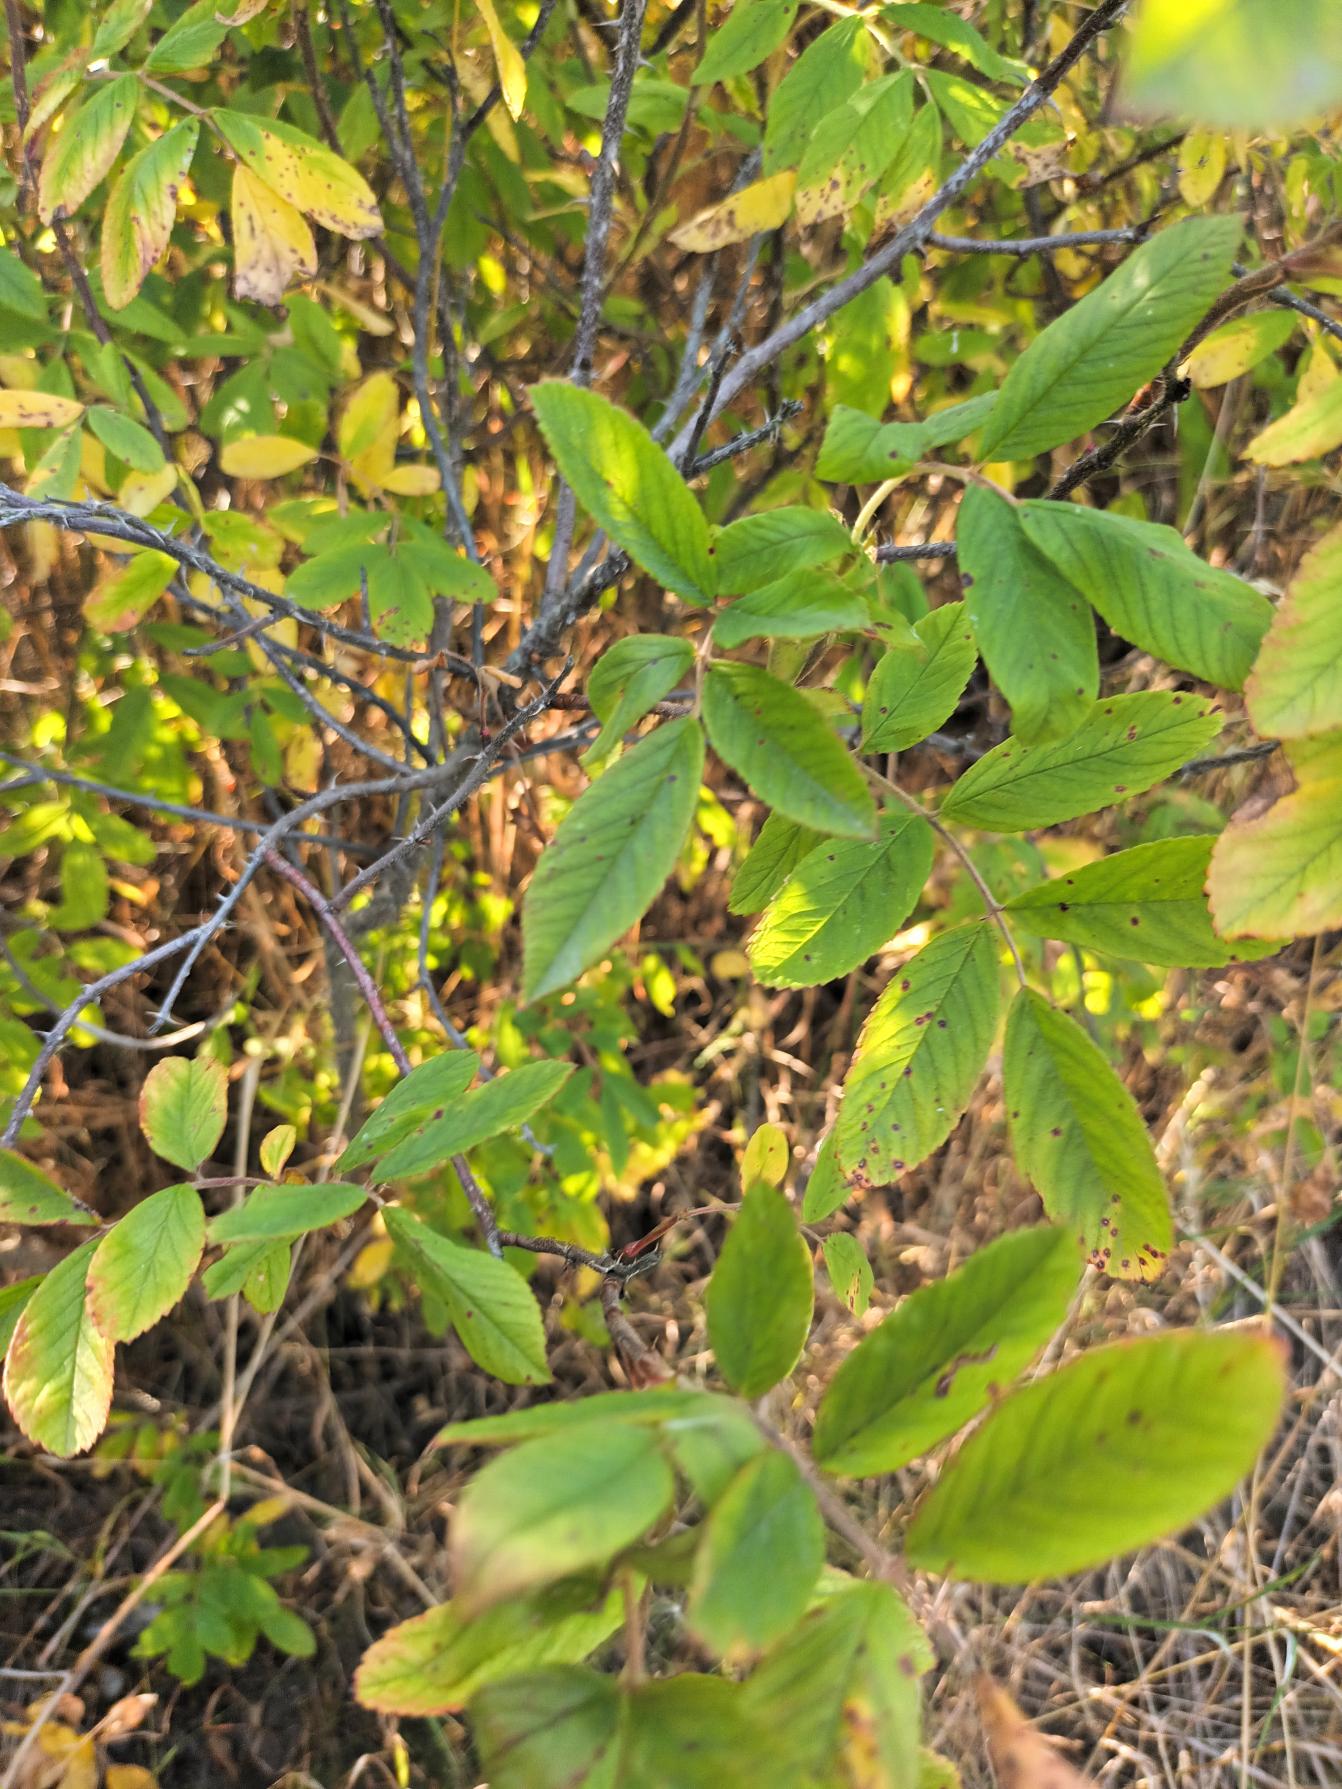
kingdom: Plantae
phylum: Tracheophyta
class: Magnoliopsida
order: Rosales
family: Rosaceae
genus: Rosa
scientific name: Rosa spaethiana
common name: Kamtjatka-rose
